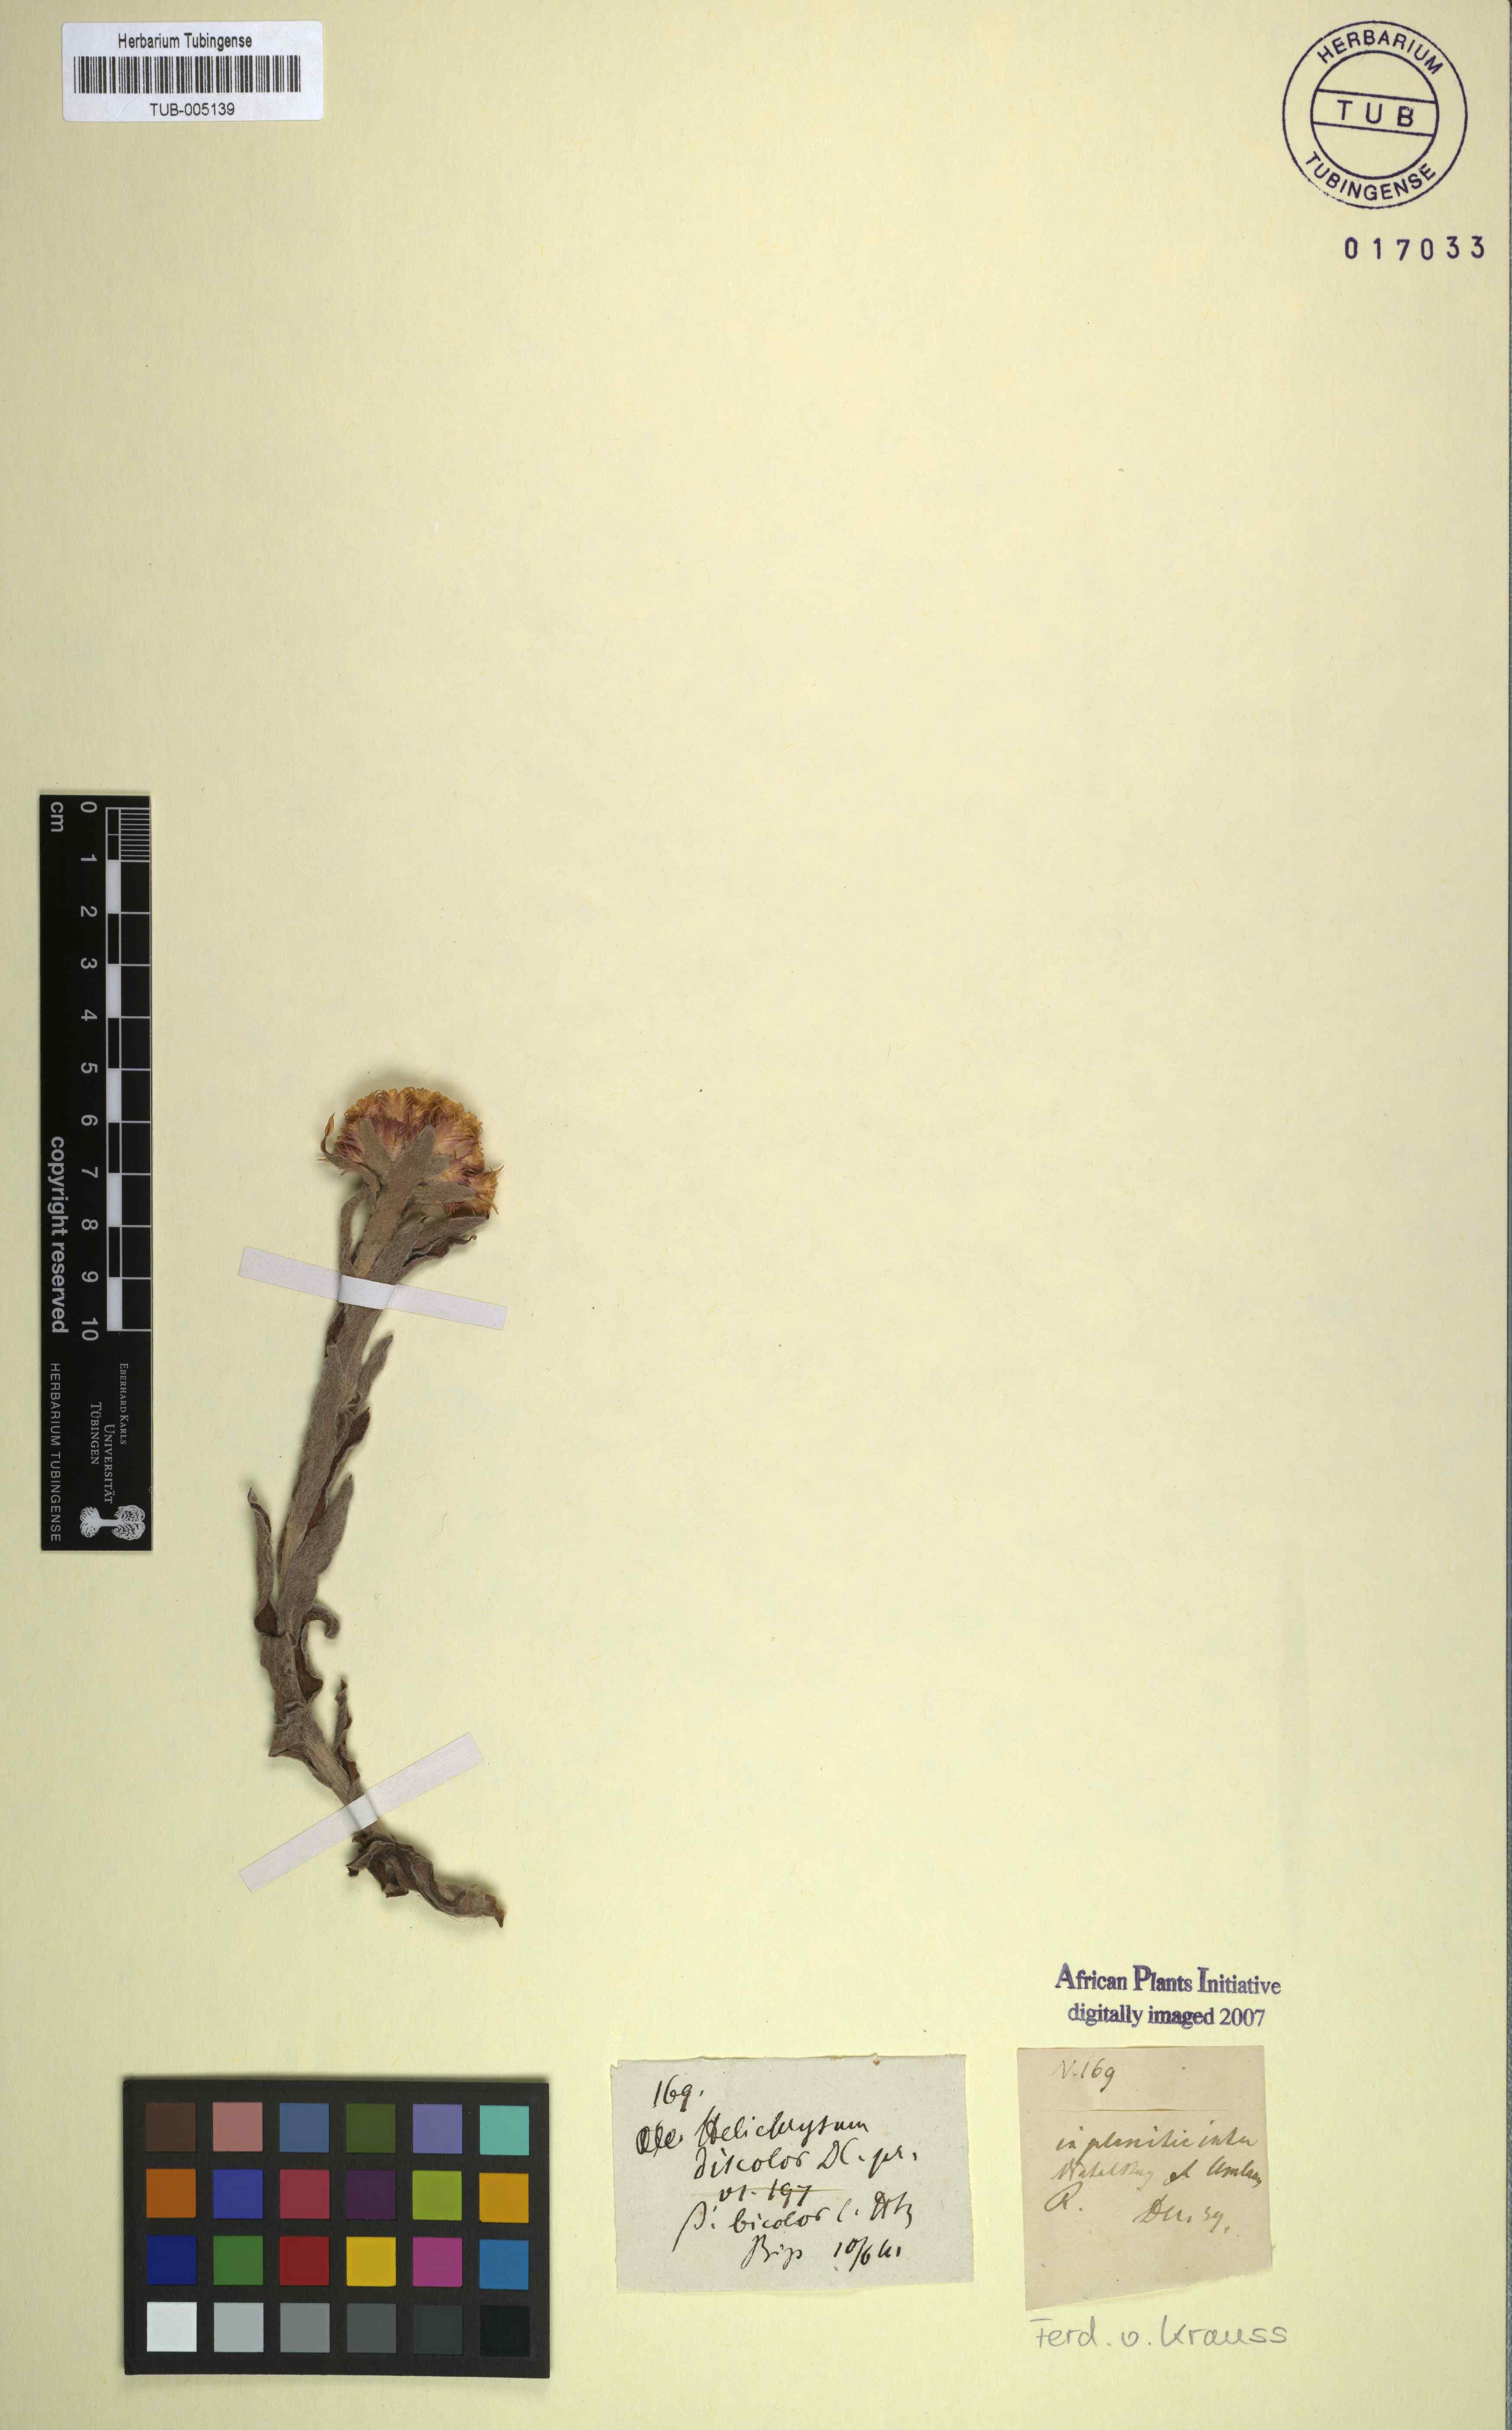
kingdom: Plantae
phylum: Tracheophyta
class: Magnoliopsida
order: Asterales
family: Asteraceae
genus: Helichrysum
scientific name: Helichrysum appendiculatum
